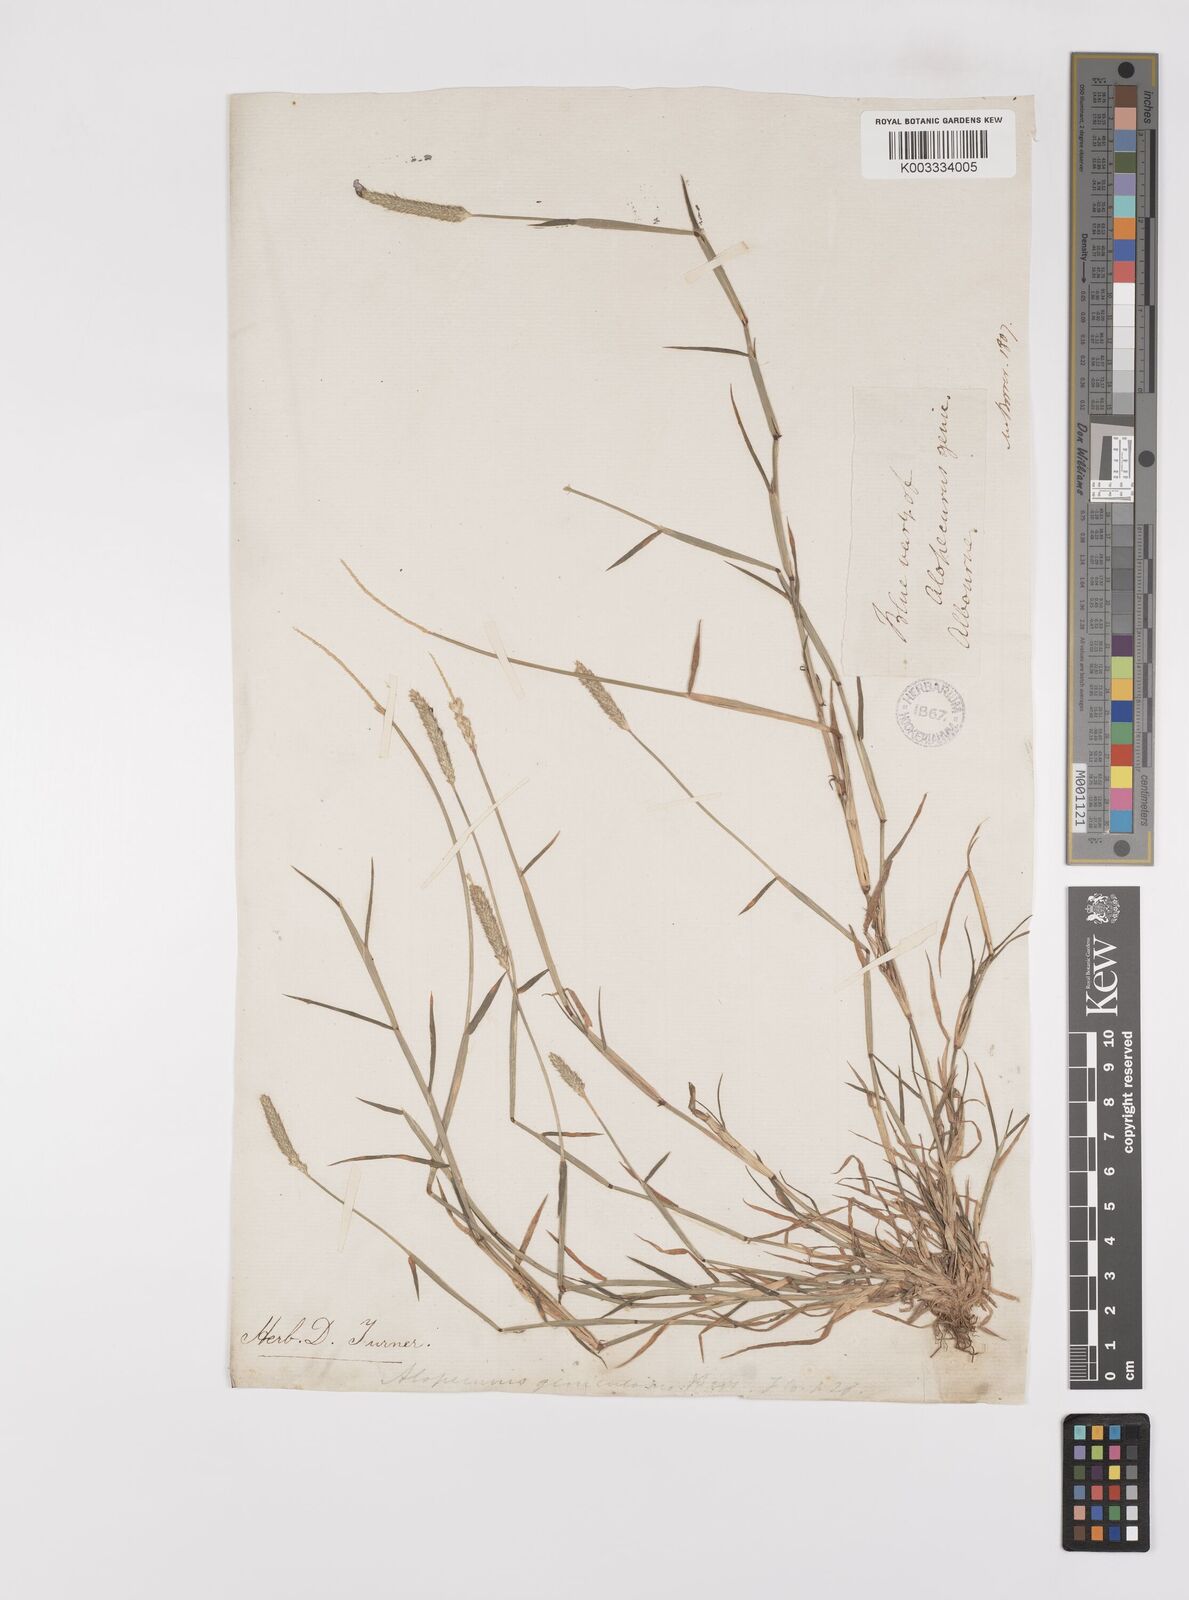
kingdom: Plantae
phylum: Tracheophyta
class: Liliopsida
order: Poales
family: Poaceae
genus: Alopecurus
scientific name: Alopecurus geniculatus
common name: Water foxtail
